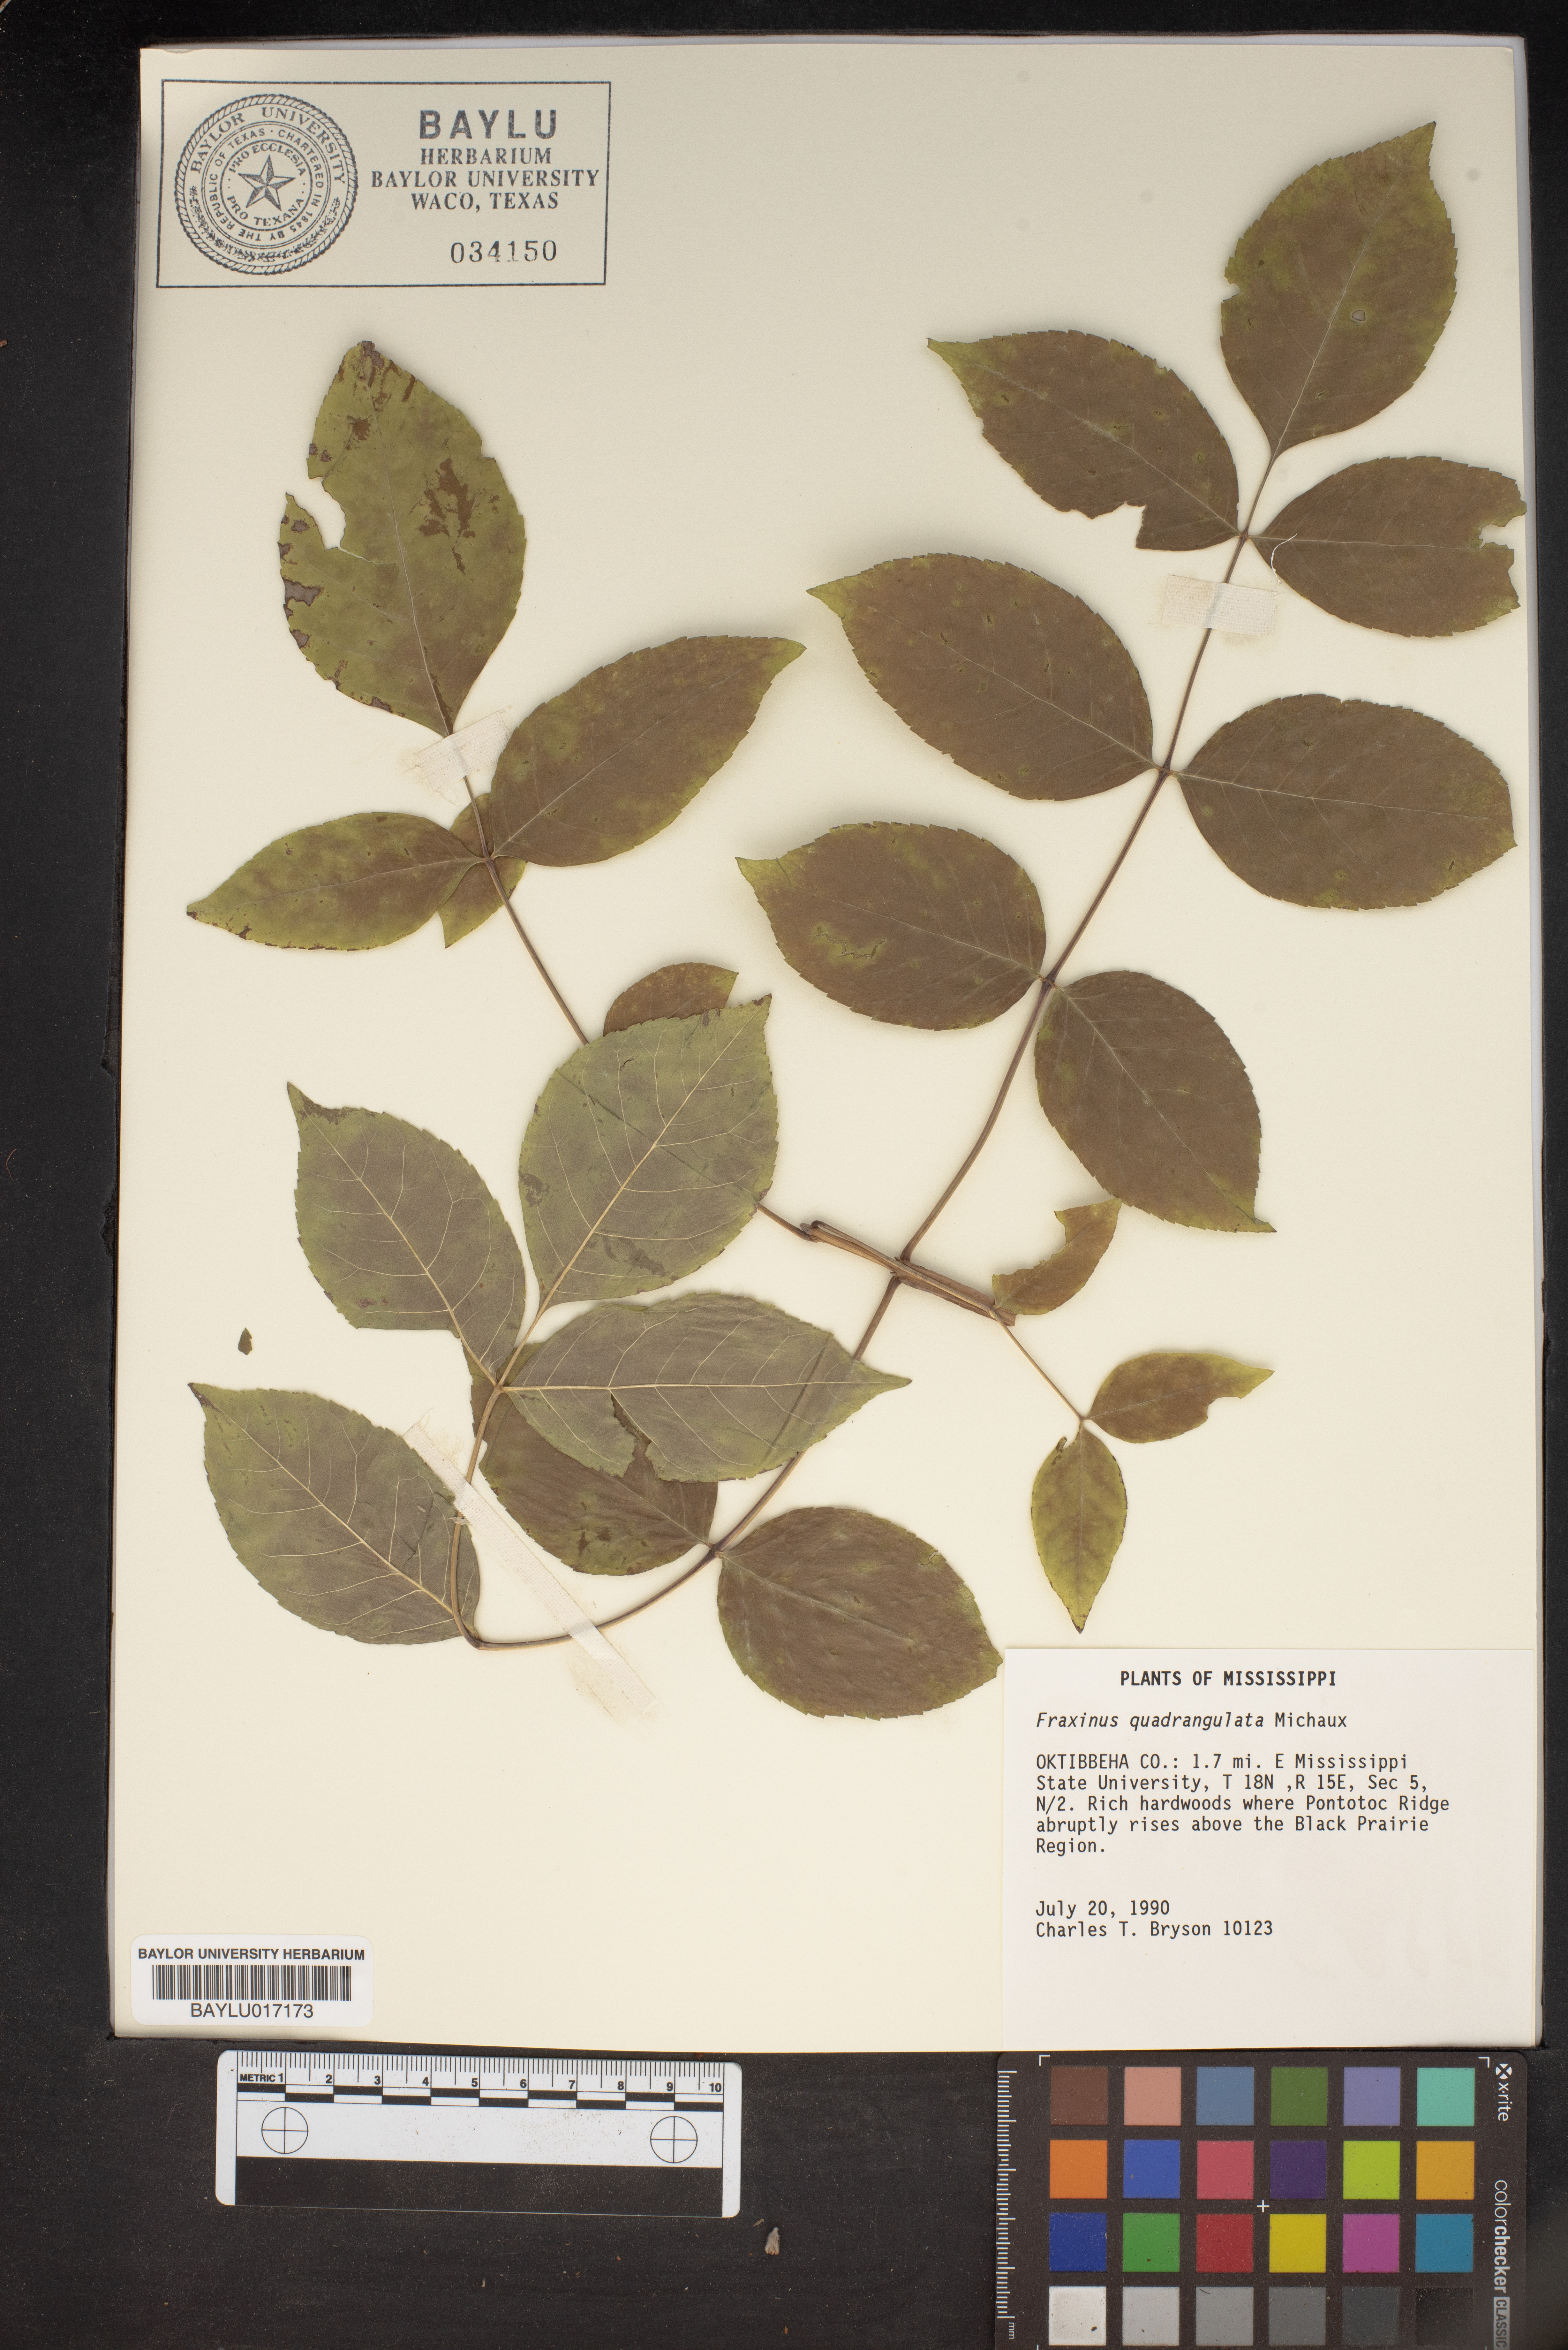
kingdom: Plantae
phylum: Tracheophyta
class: Magnoliopsida
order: Lamiales
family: Oleaceae
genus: Fraxinus
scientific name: Fraxinus quadrangulata
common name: Blue ash
